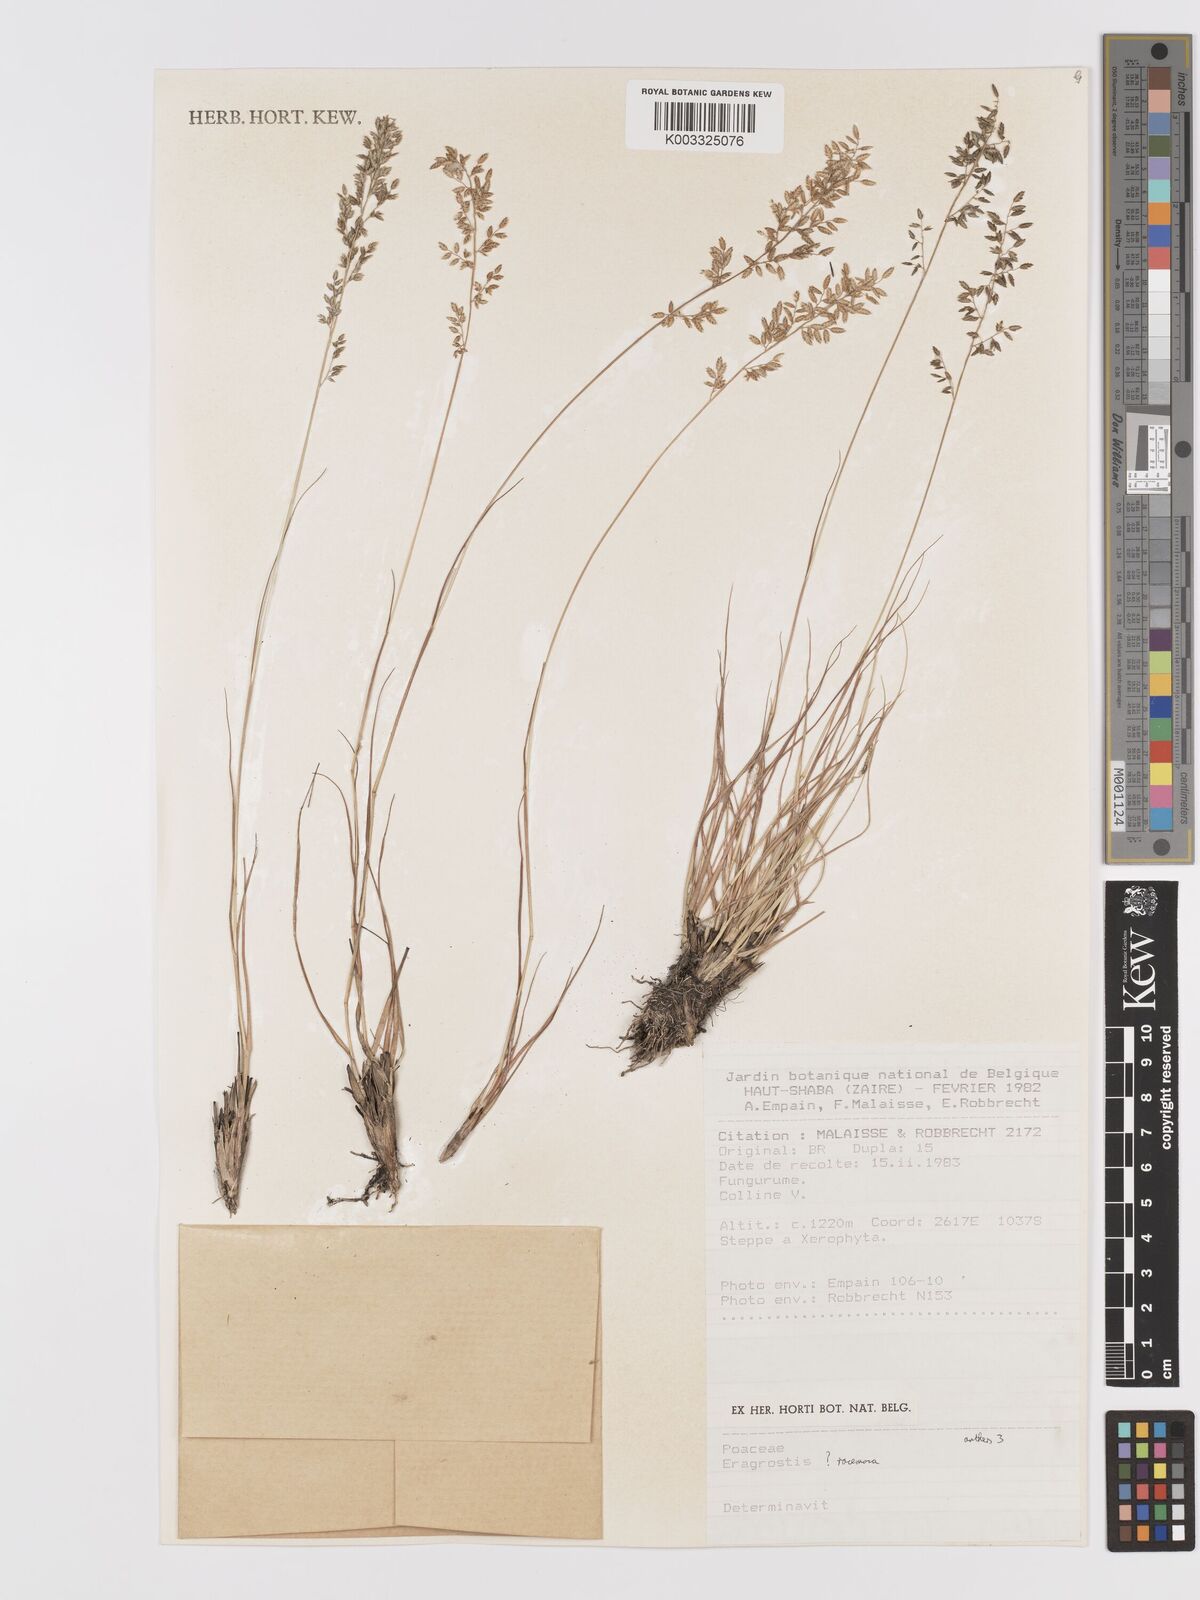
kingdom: Plantae
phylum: Tracheophyta
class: Liliopsida
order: Poales
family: Poaceae
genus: Eragrostis
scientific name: Eragrostis
